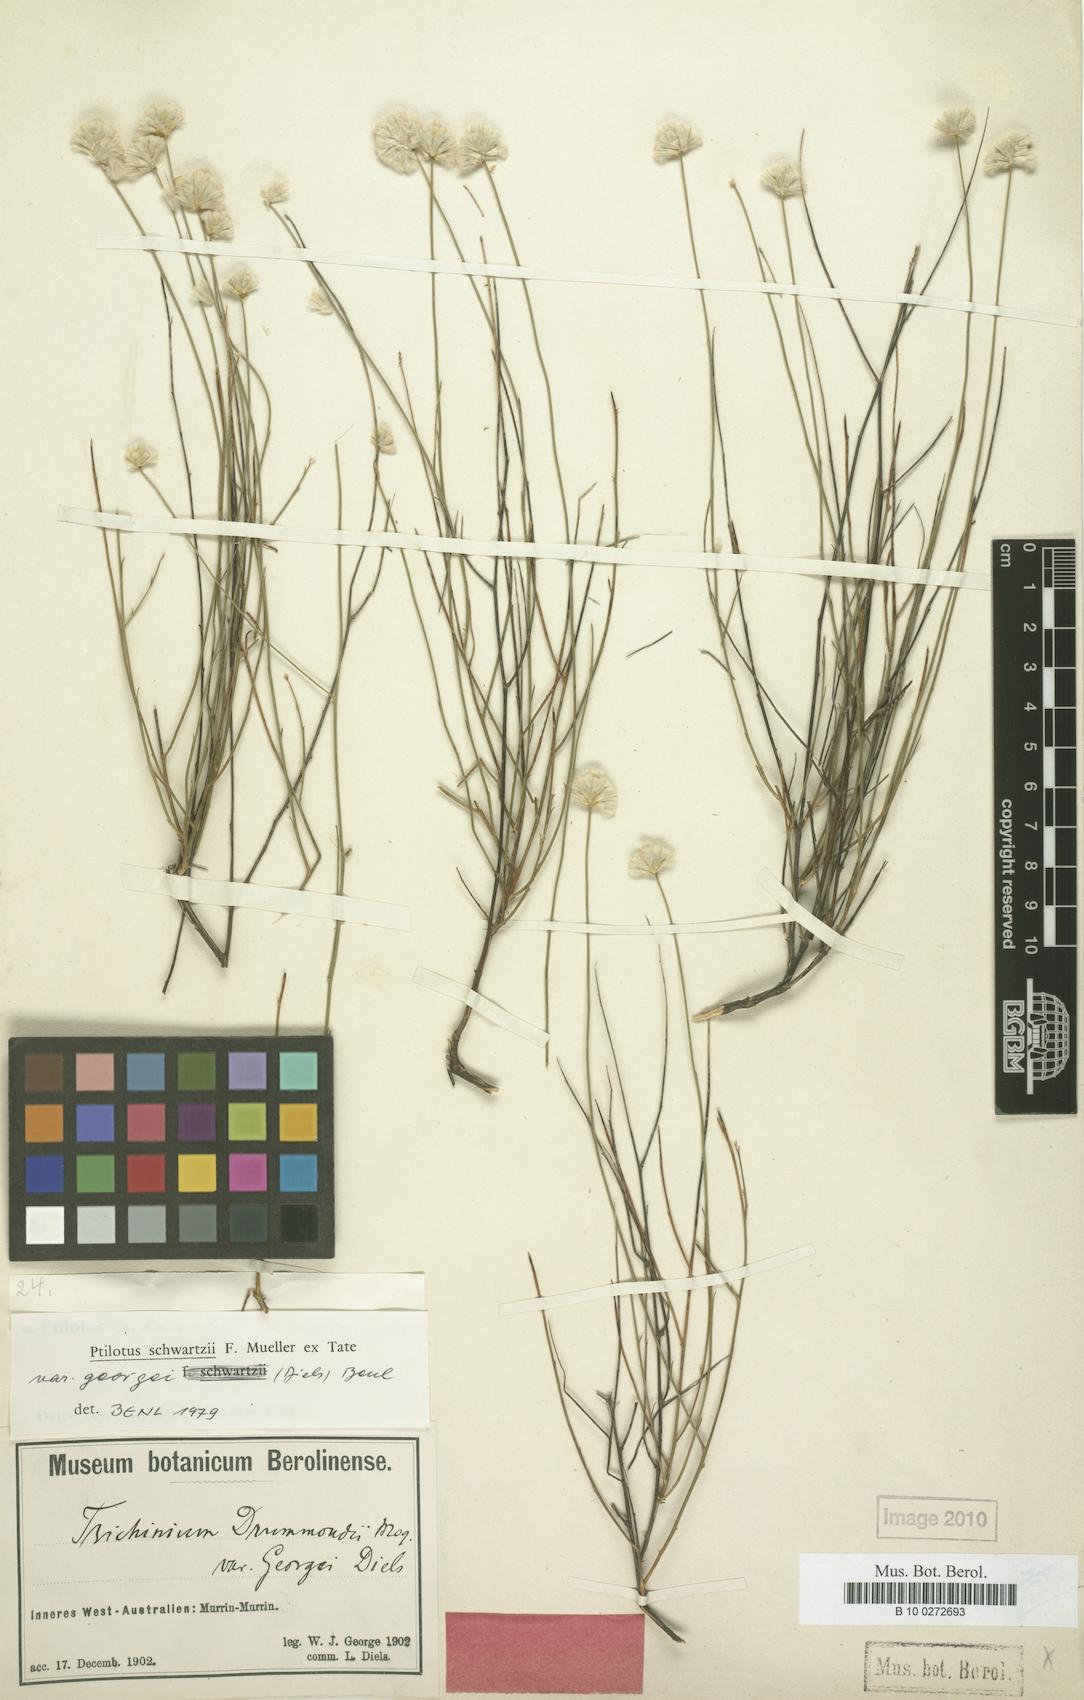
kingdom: Plantae
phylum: Tracheophyta
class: Magnoliopsida
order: Caryophyllales
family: Amaranthaceae
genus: Ptilotus
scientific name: Ptilotus schwartzii
